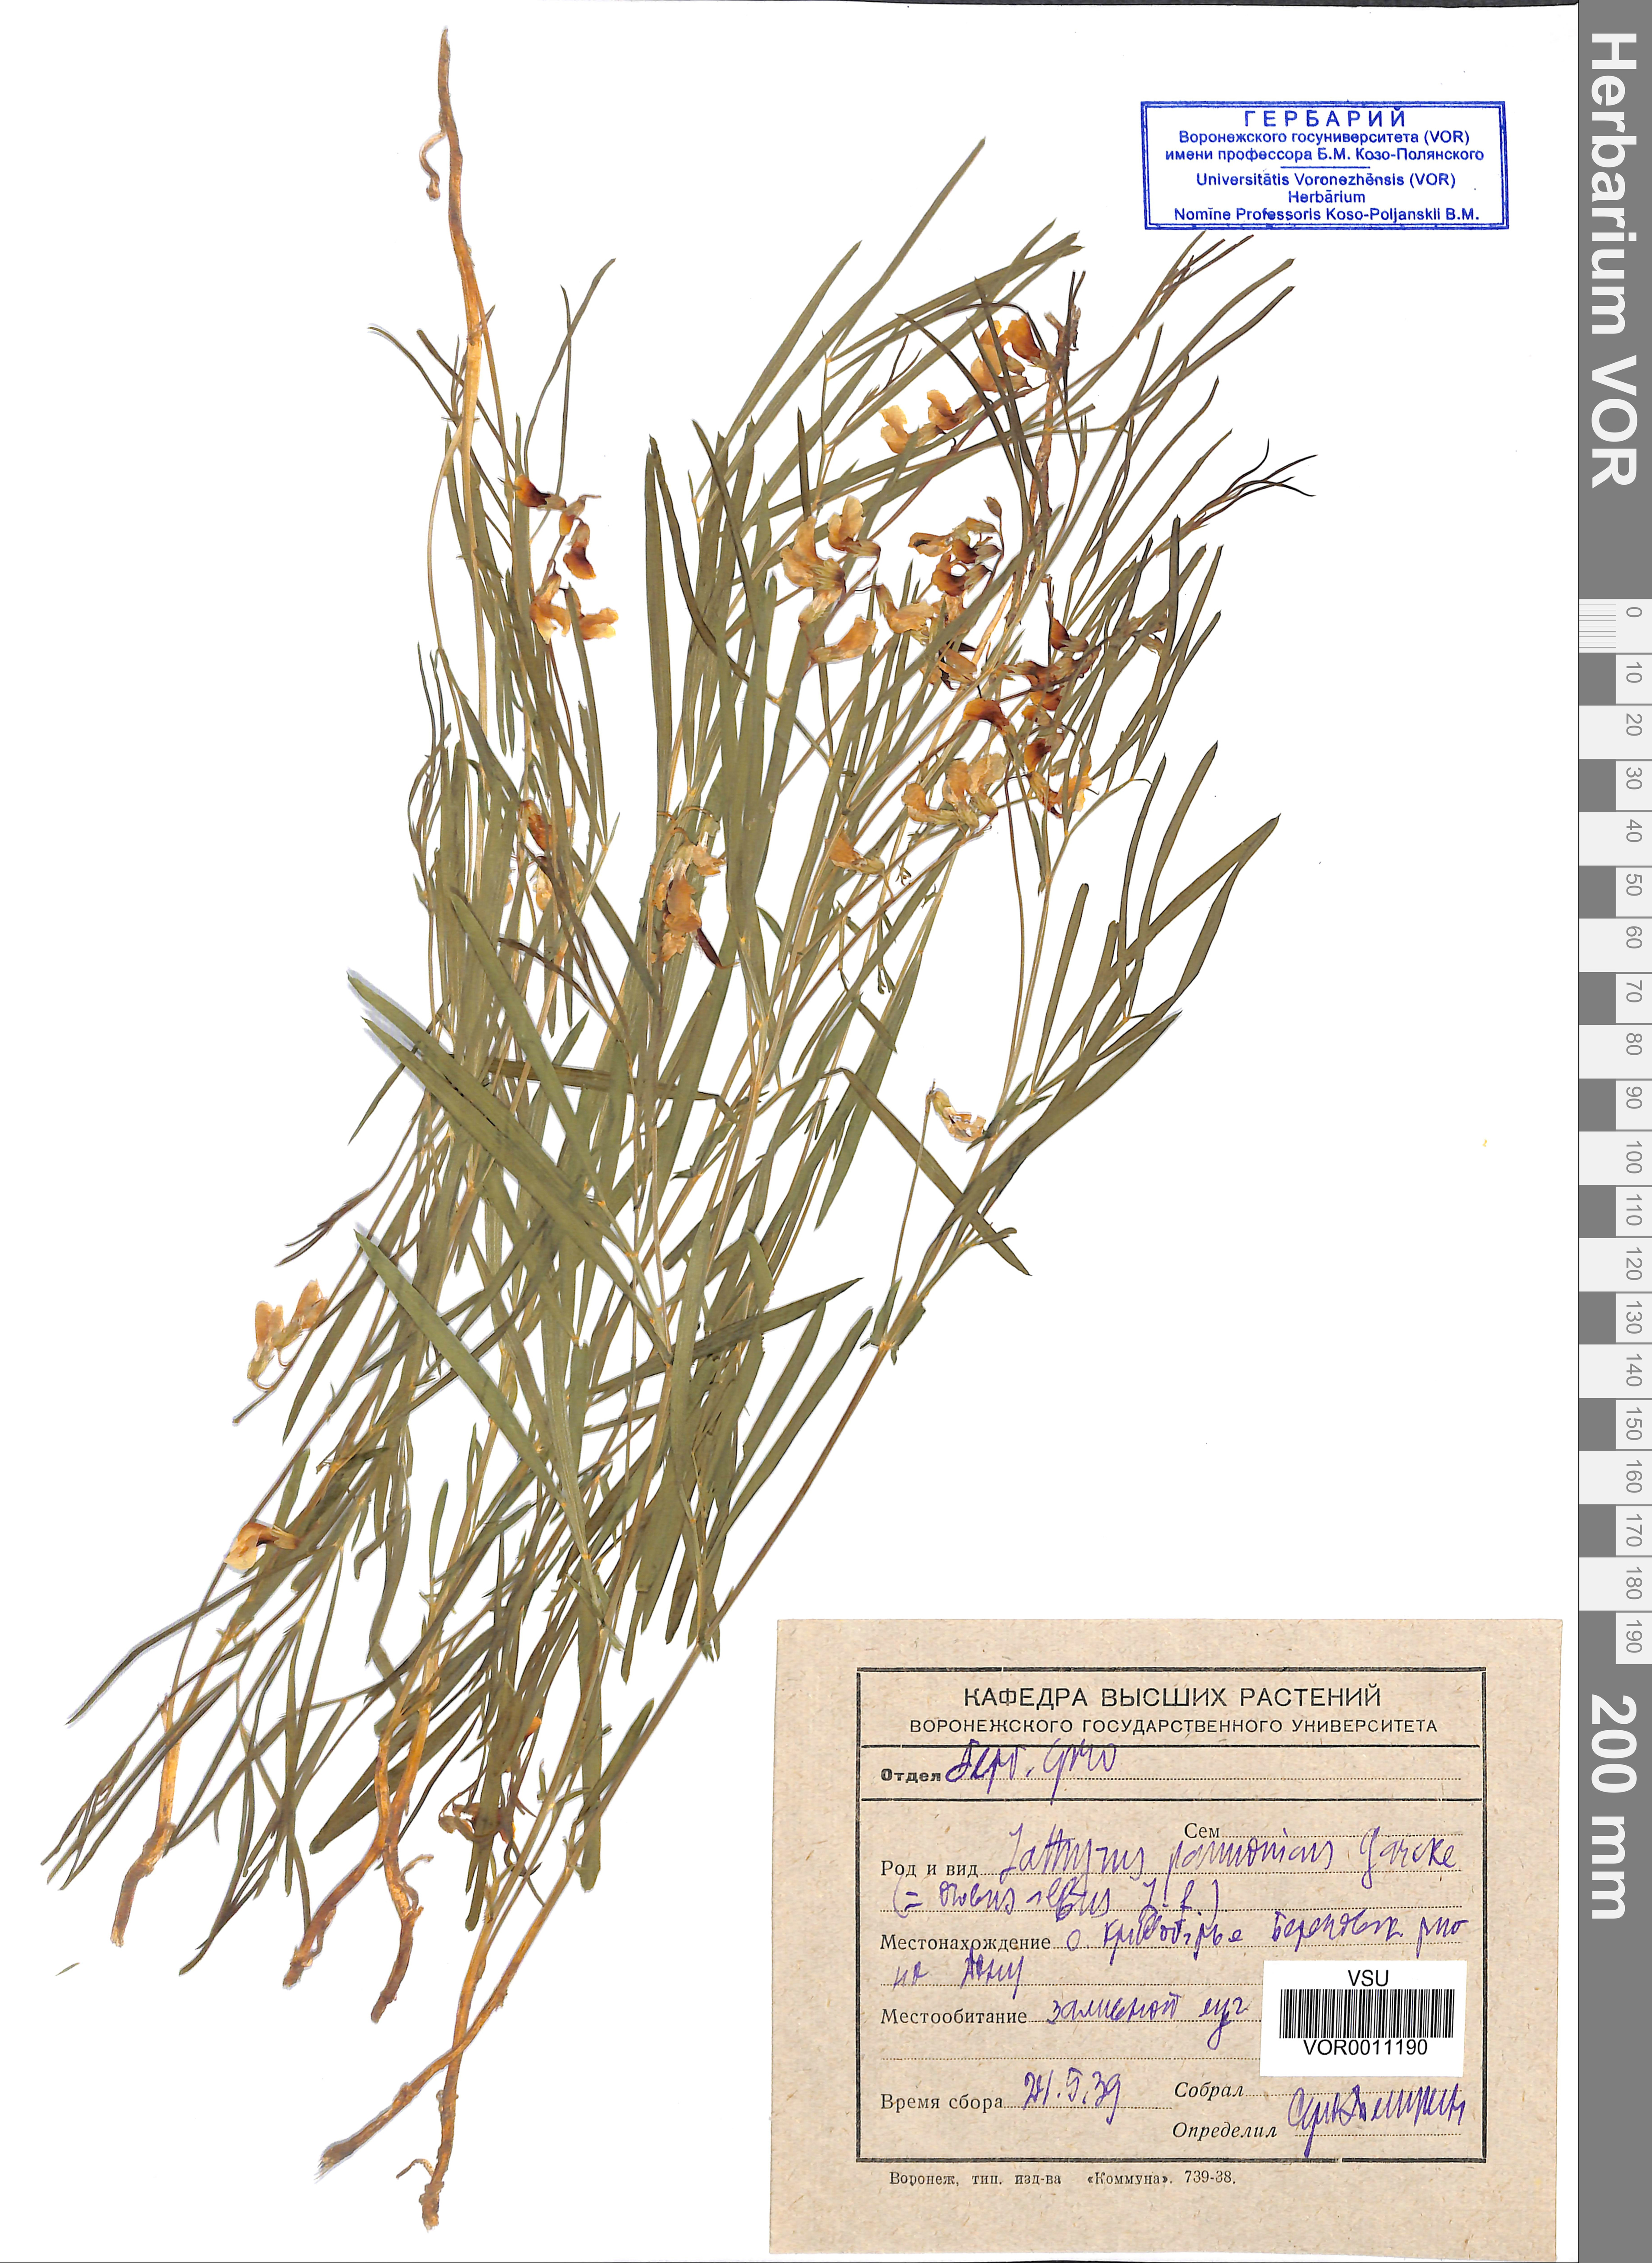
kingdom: Plantae
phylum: Tracheophyta
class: Magnoliopsida
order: Fabales
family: Fabaceae
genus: Lathyrus
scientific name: Lathyrus pannonicus
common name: Pea
